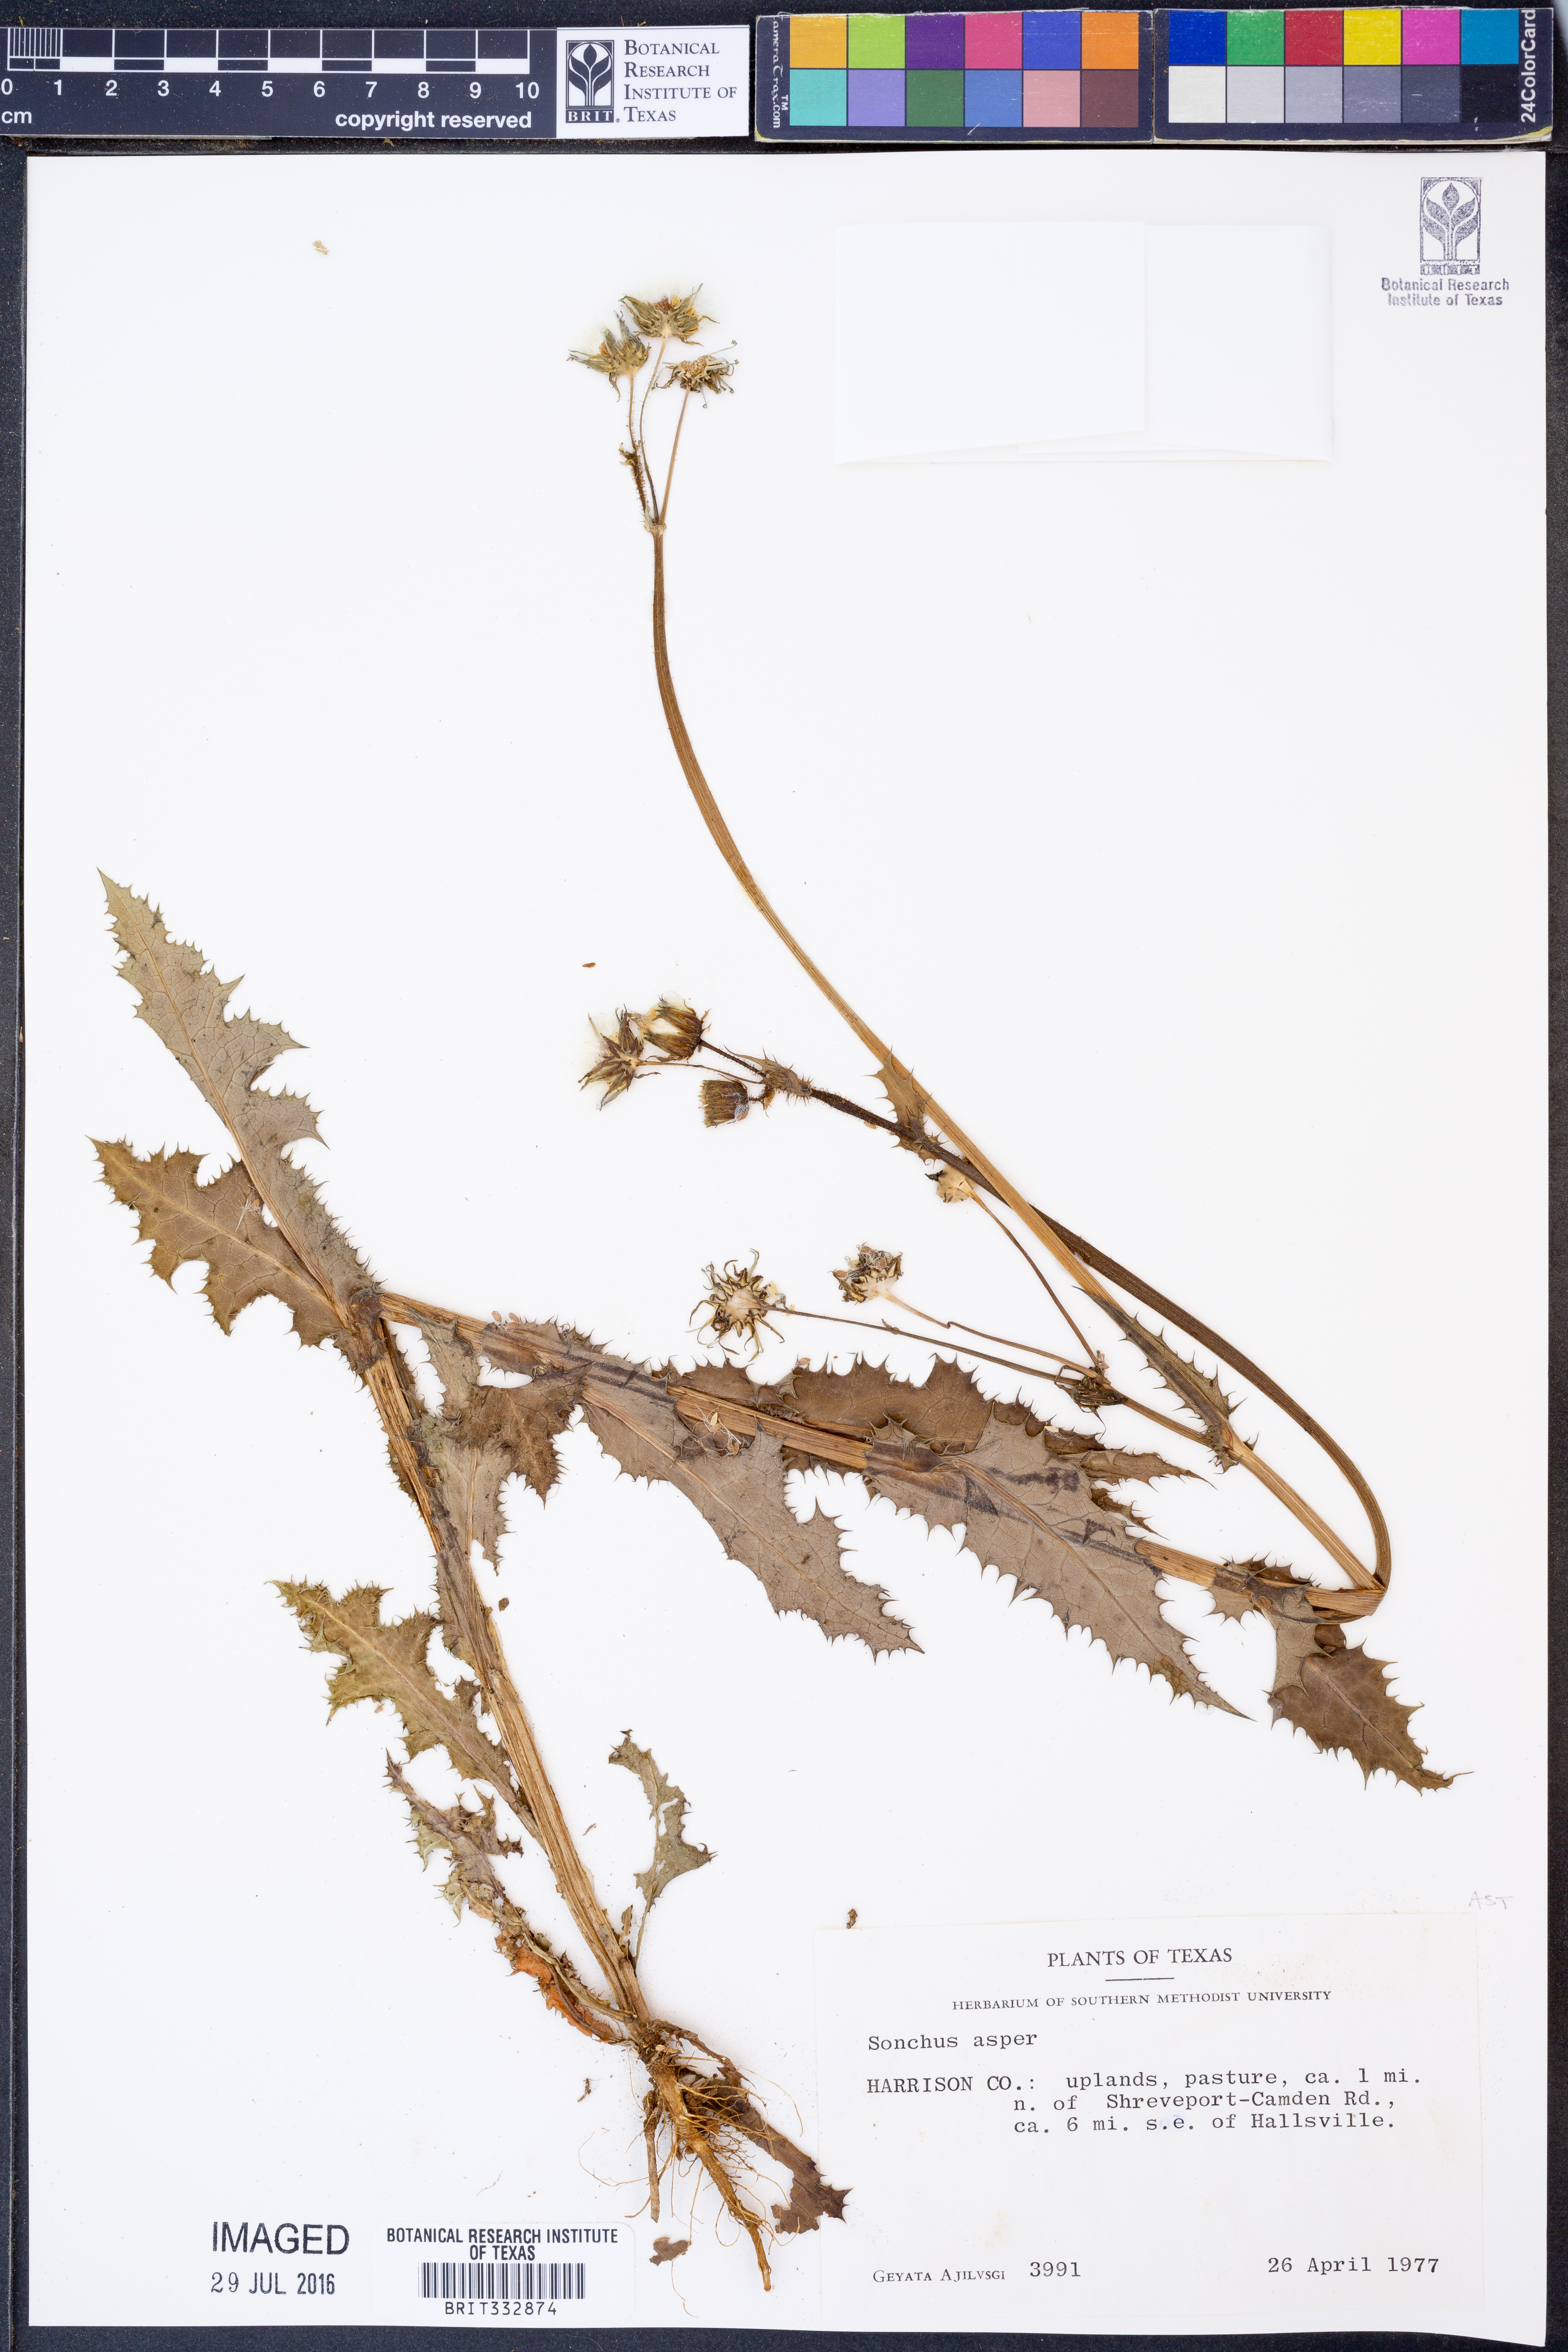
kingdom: Plantae
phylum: Tracheophyta
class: Magnoliopsida
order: Asterales
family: Asteraceae
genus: Sonchus
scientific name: Sonchus asper
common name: Prickly sow-thistle
